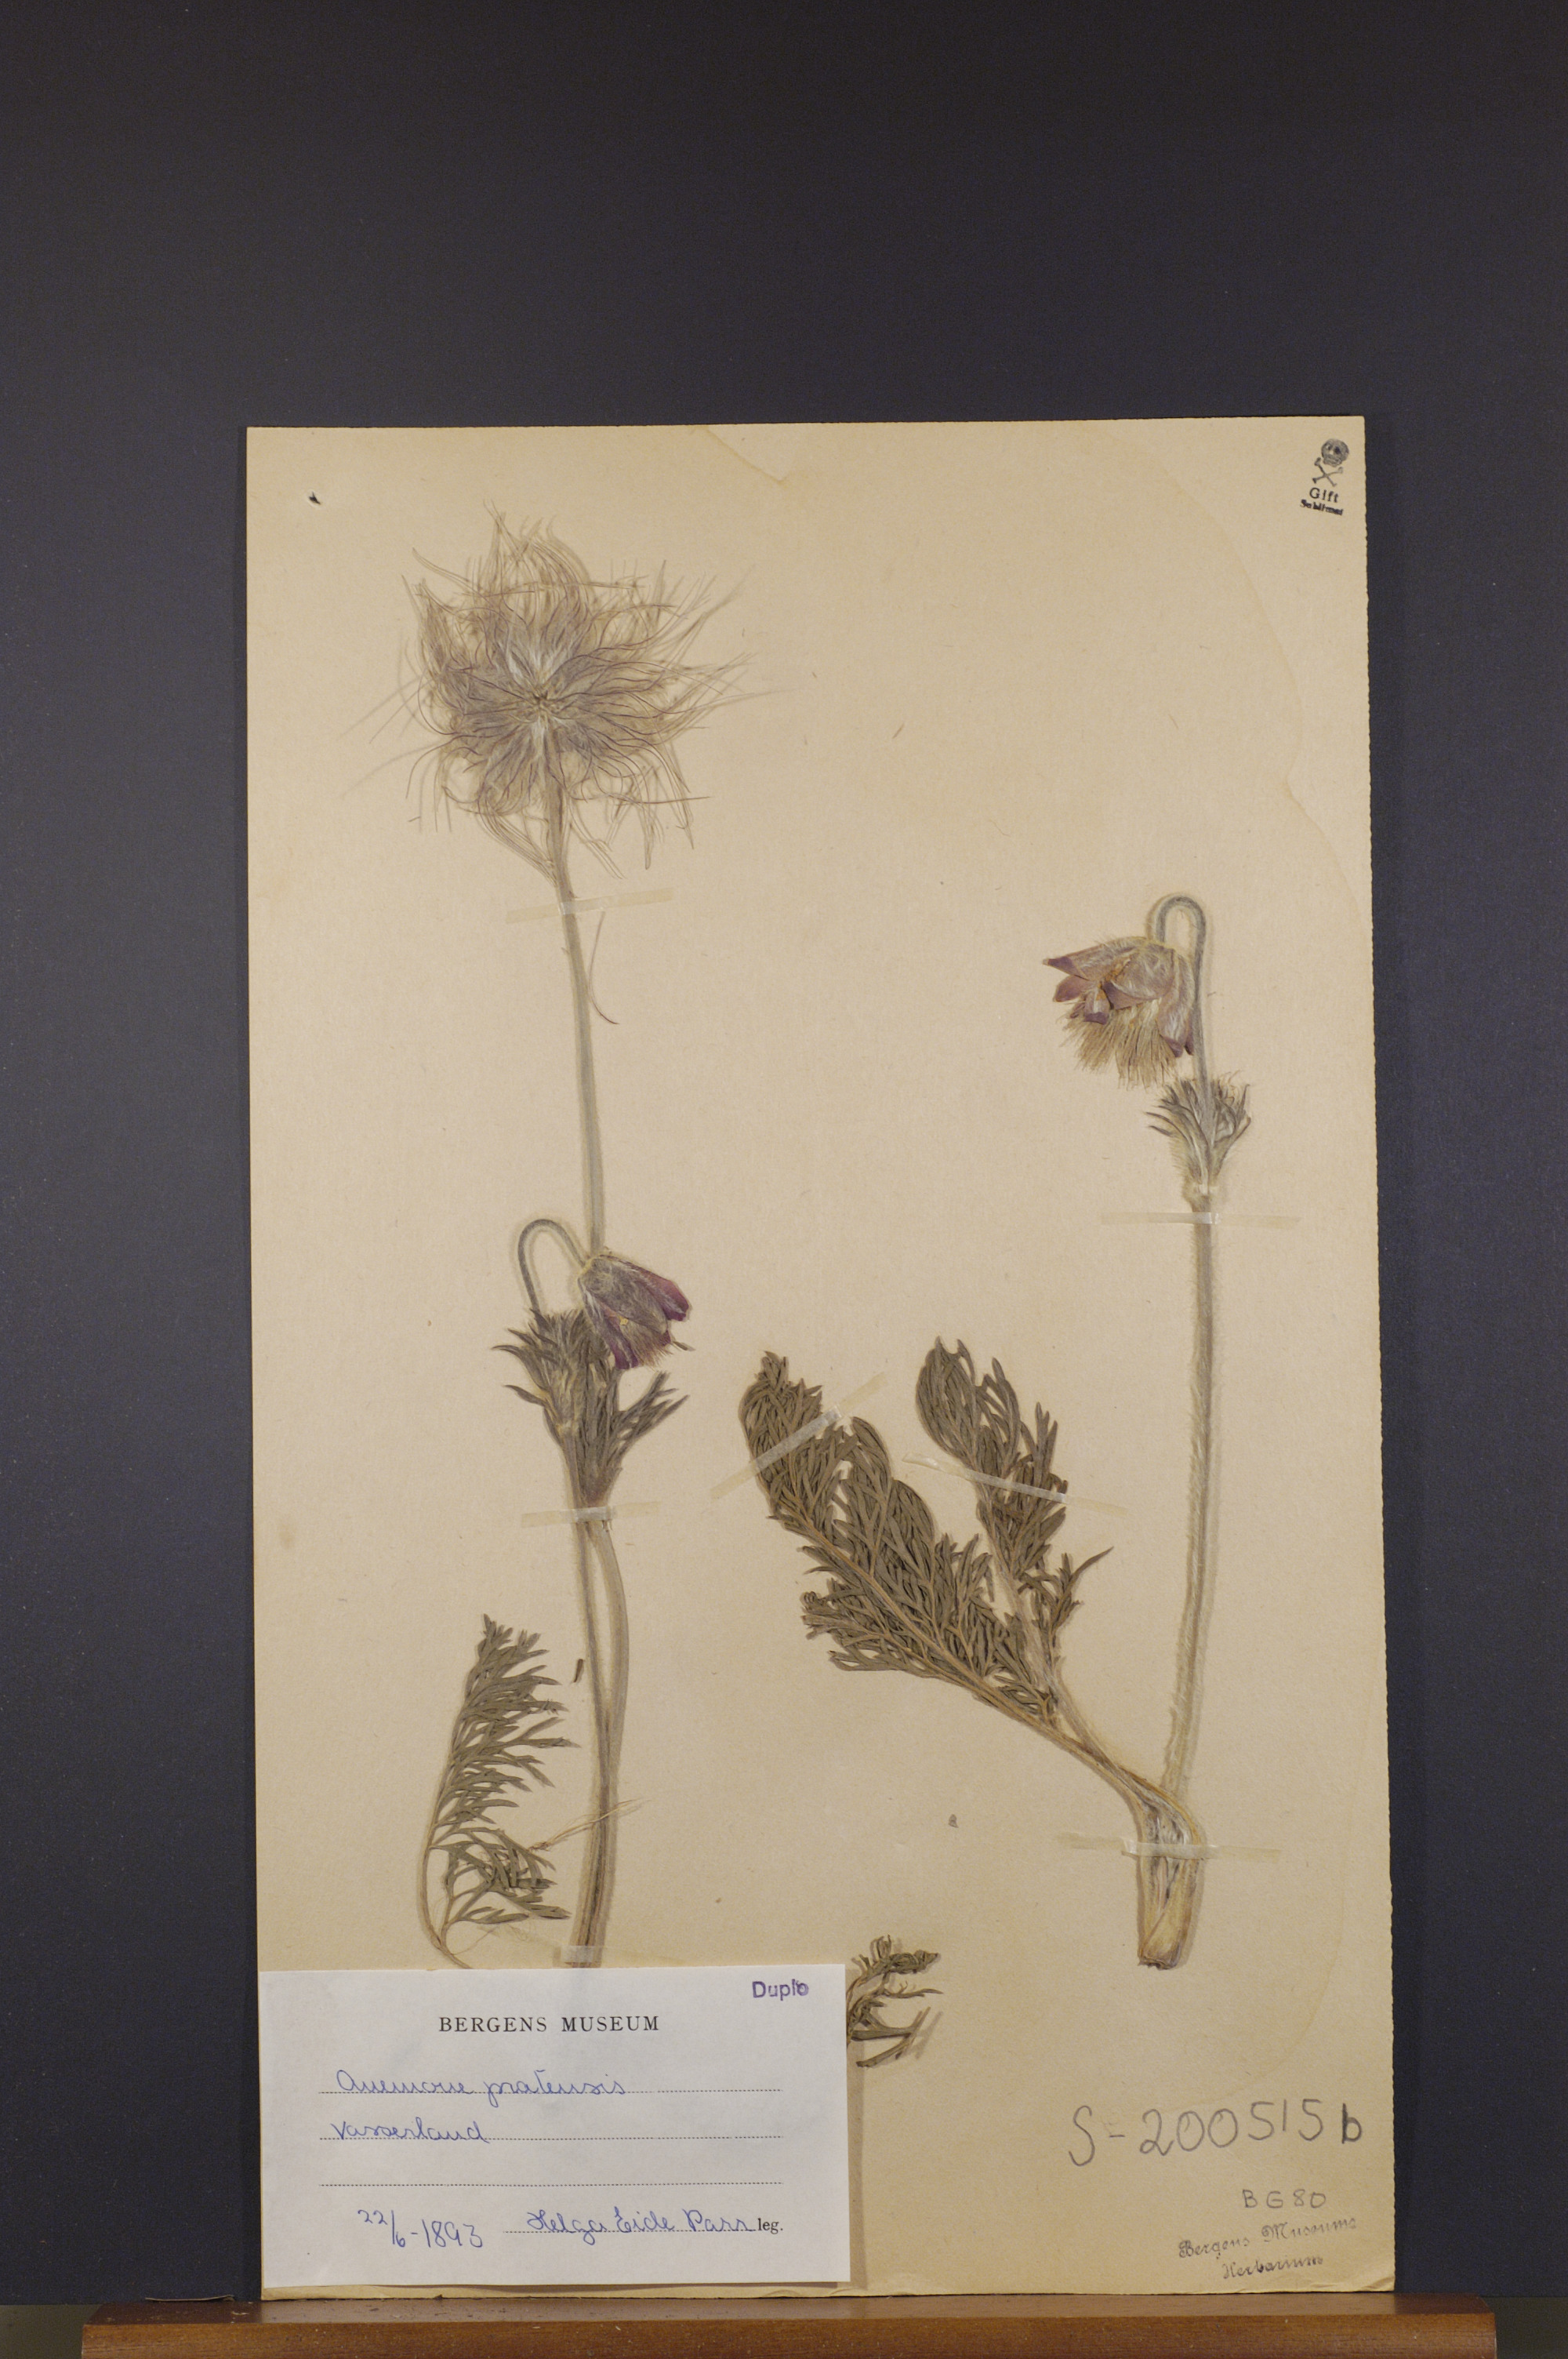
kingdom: Plantae
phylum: Tracheophyta
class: Magnoliopsida
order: Ranunculales
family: Ranunculaceae
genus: Pulsatilla
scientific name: Pulsatilla pratensis
